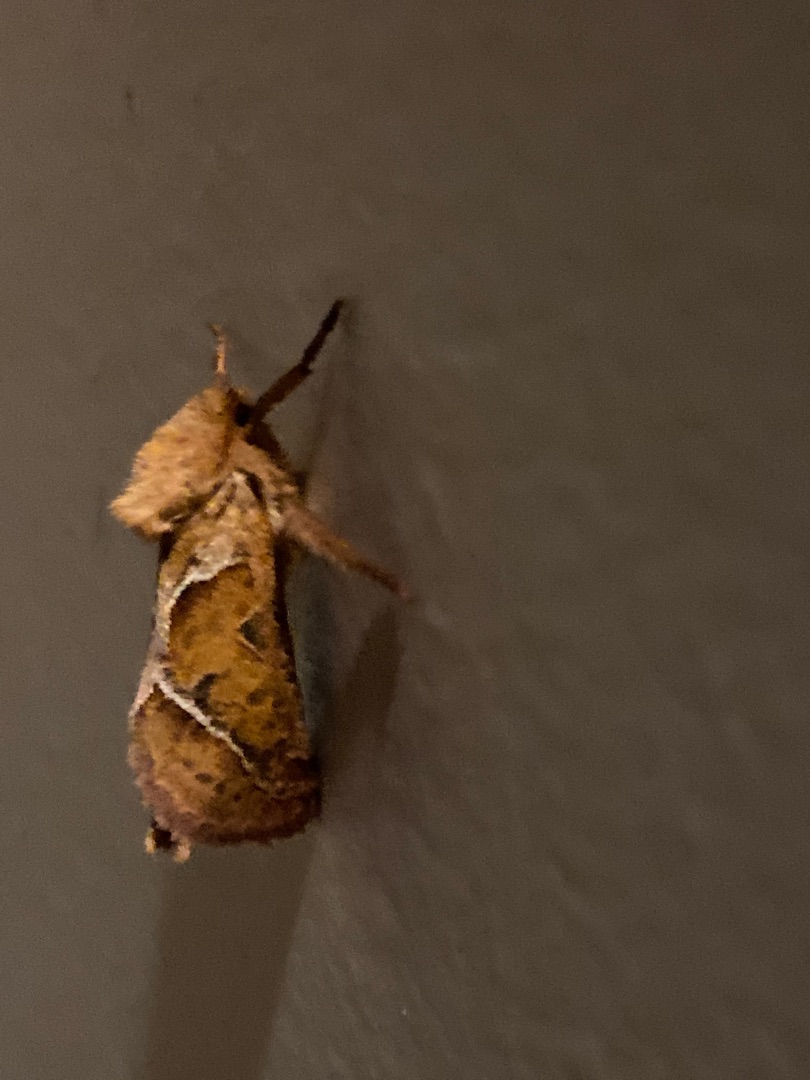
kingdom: Animalia
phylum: Arthropoda
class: Insecta
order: Lepidoptera
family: Hepialidae
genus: Triodia
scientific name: Triodia sylvina
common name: Skræpperodæder
